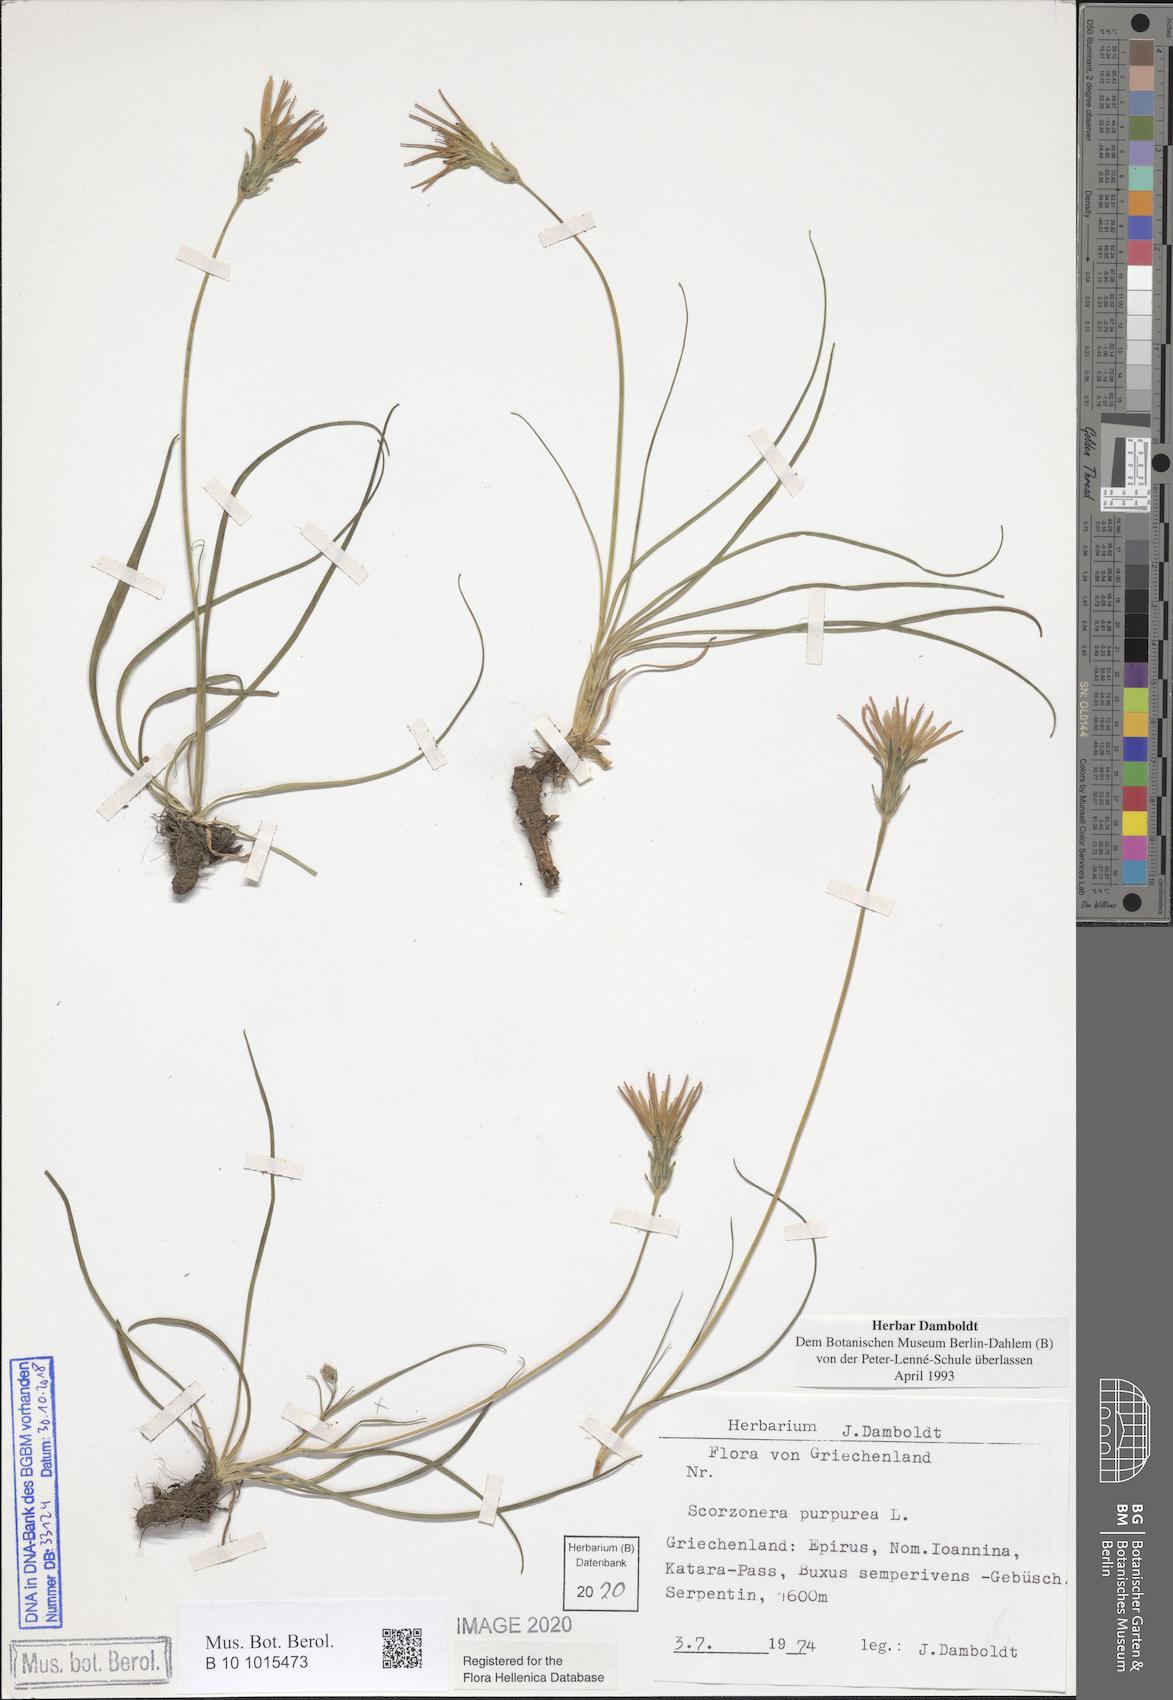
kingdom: Plantae
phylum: Tracheophyta
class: Magnoliopsida
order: Asterales
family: Asteraceae
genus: Scorzonera
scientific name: Scorzonera purpurea
